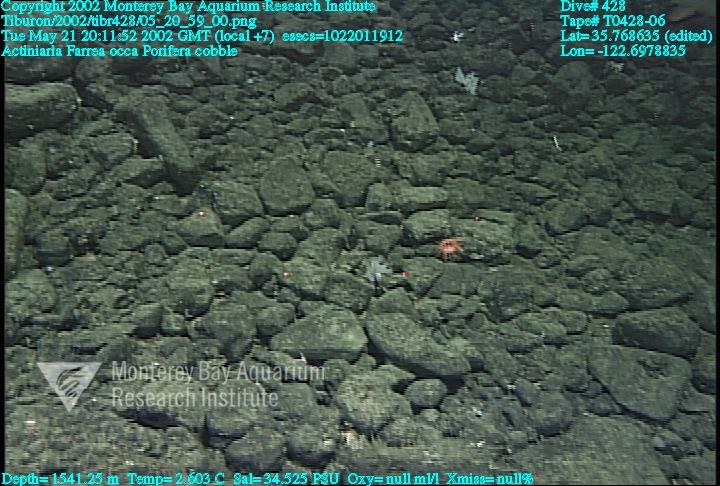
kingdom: Animalia
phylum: Porifera
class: Hexactinellida
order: Sceptrulophora
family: Farreidae
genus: Farrea
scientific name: Farrea occa
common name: Reversed glass sponge
